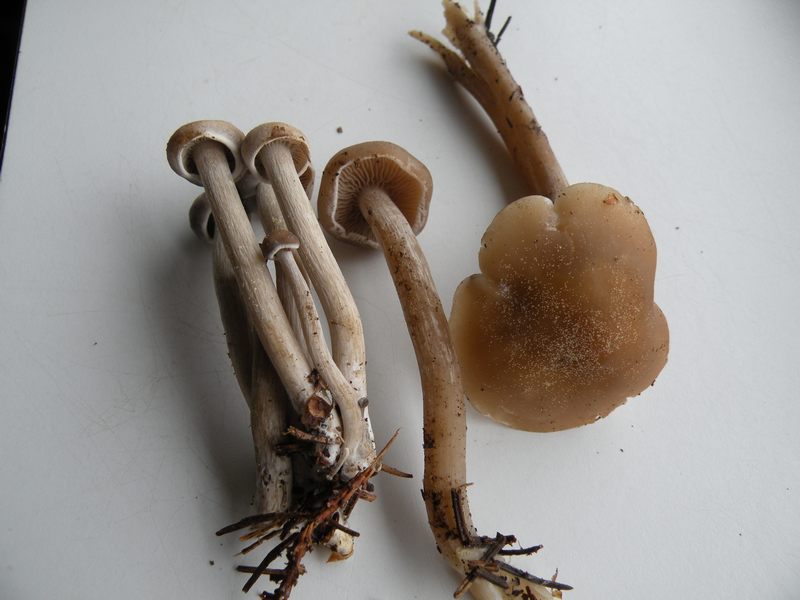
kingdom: Fungi
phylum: Basidiomycota
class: Agaricomycetes
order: Agaricales
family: Tricholomataceae
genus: Clitocybe
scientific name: Clitocybe metachroa
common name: grå tragthat
